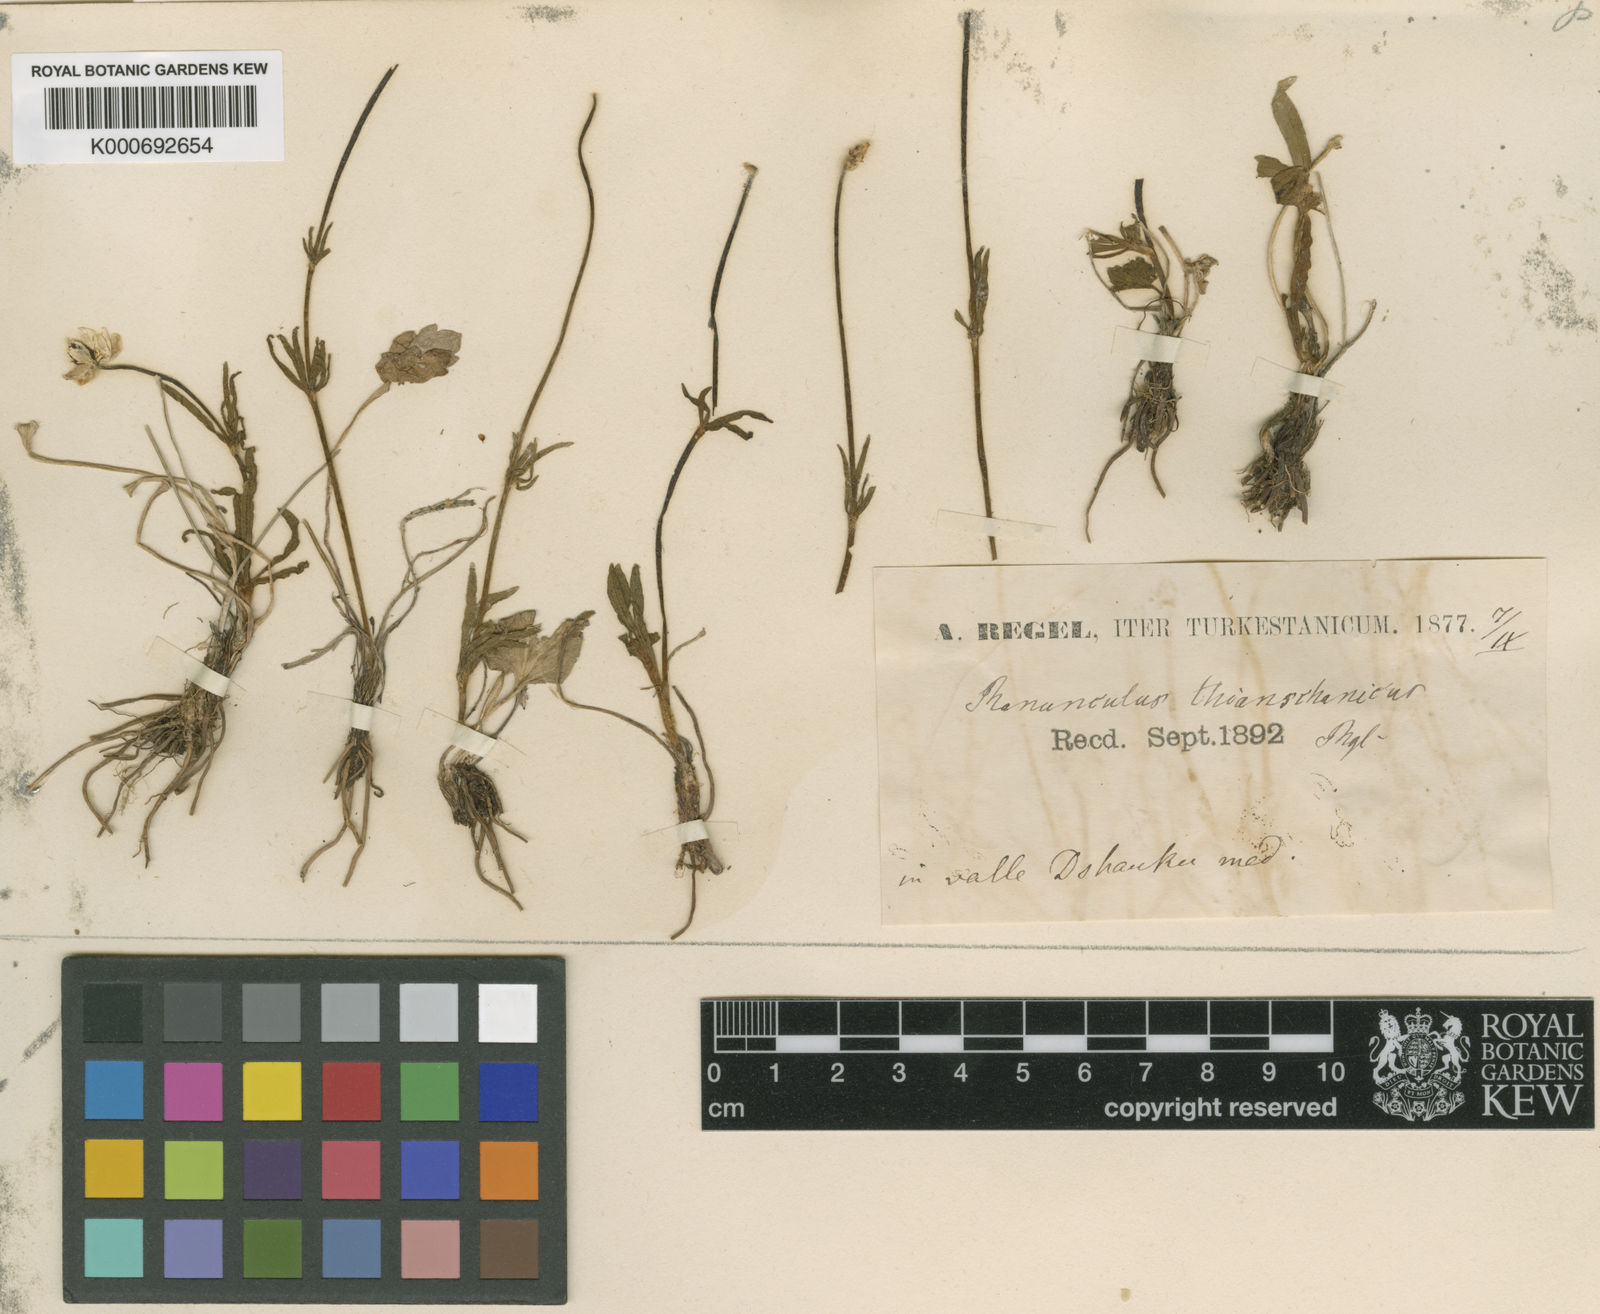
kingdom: Plantae
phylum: Tracheophyta
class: Magnoliopsida
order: Ranunculales
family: Ranunculaceae
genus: Ranunculus
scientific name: Ranunculus
